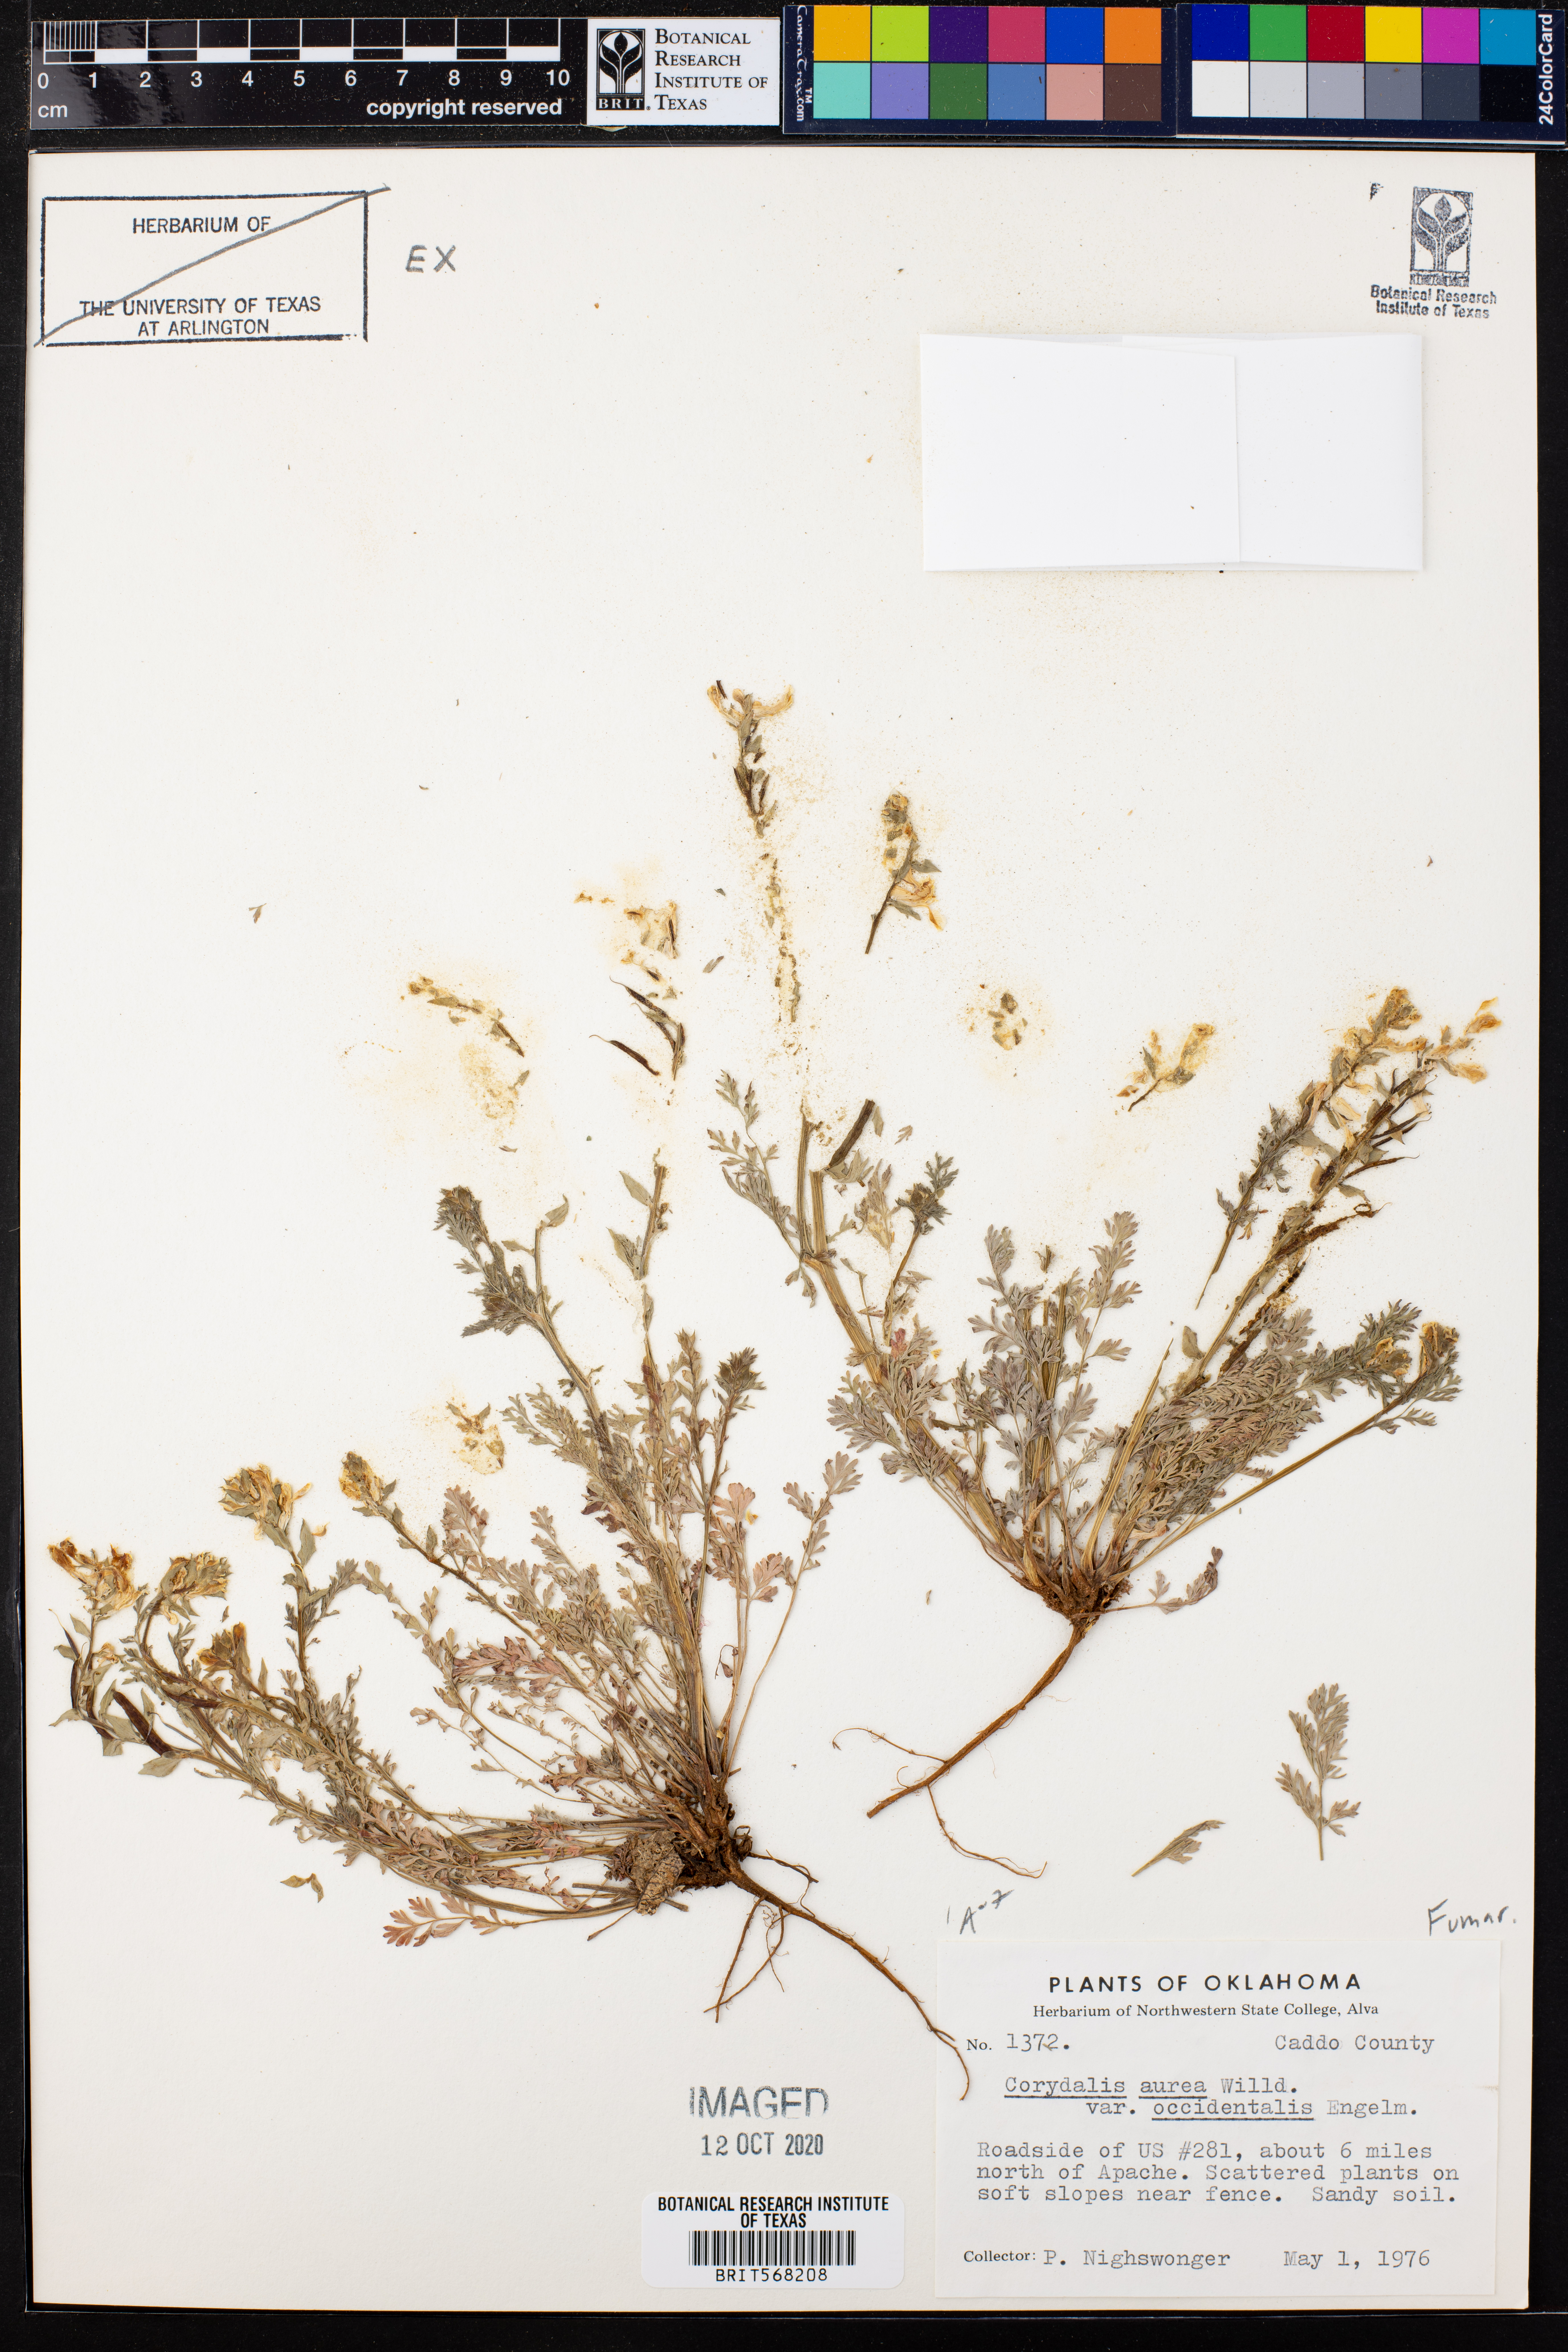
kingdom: Plantae
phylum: Tracheophyta
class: Magnoliopsida
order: Ranunculales
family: Papaveraceae
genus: Corydalis
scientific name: Corydalis curvisiliqua
